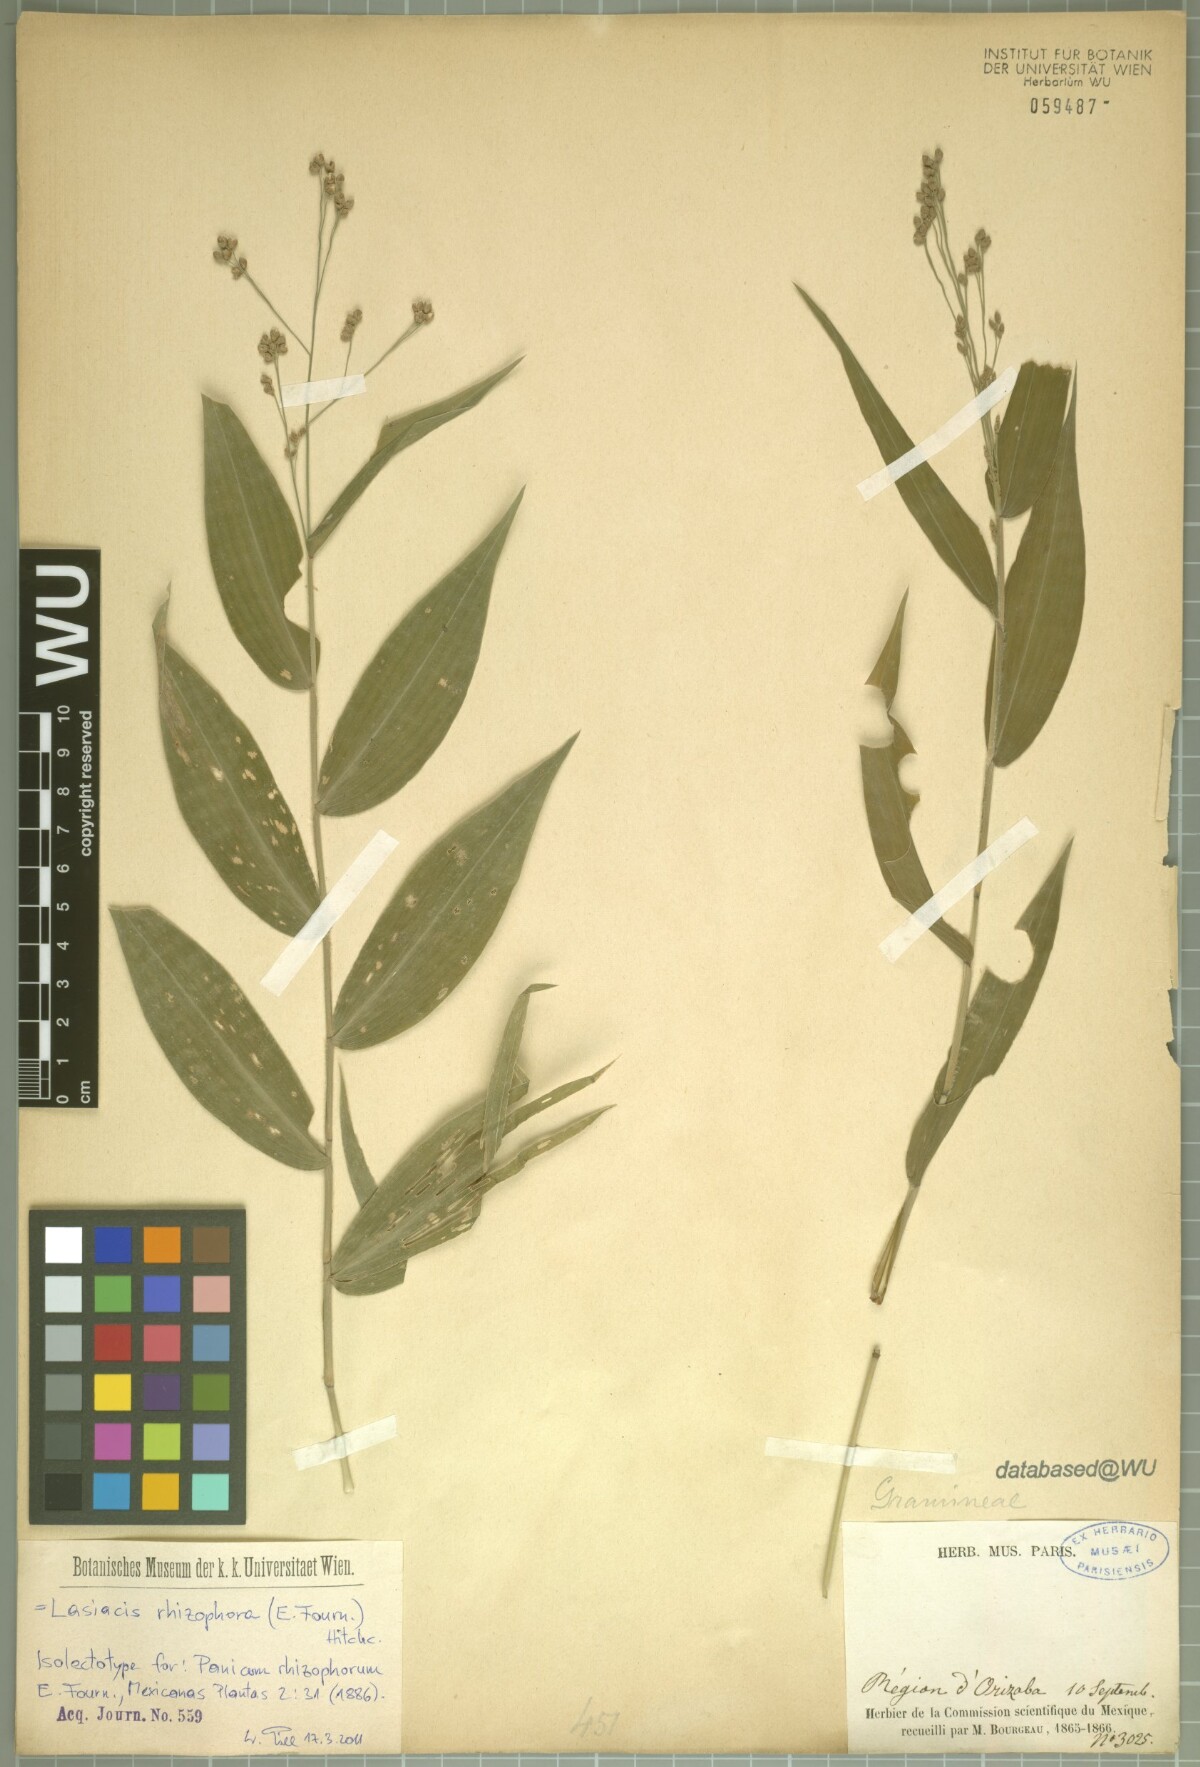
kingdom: Plantae
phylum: Tracheophyta
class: Liliopsida
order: Poales
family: Poaceae
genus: Lasiacis
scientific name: Lasiacis rhizophora
